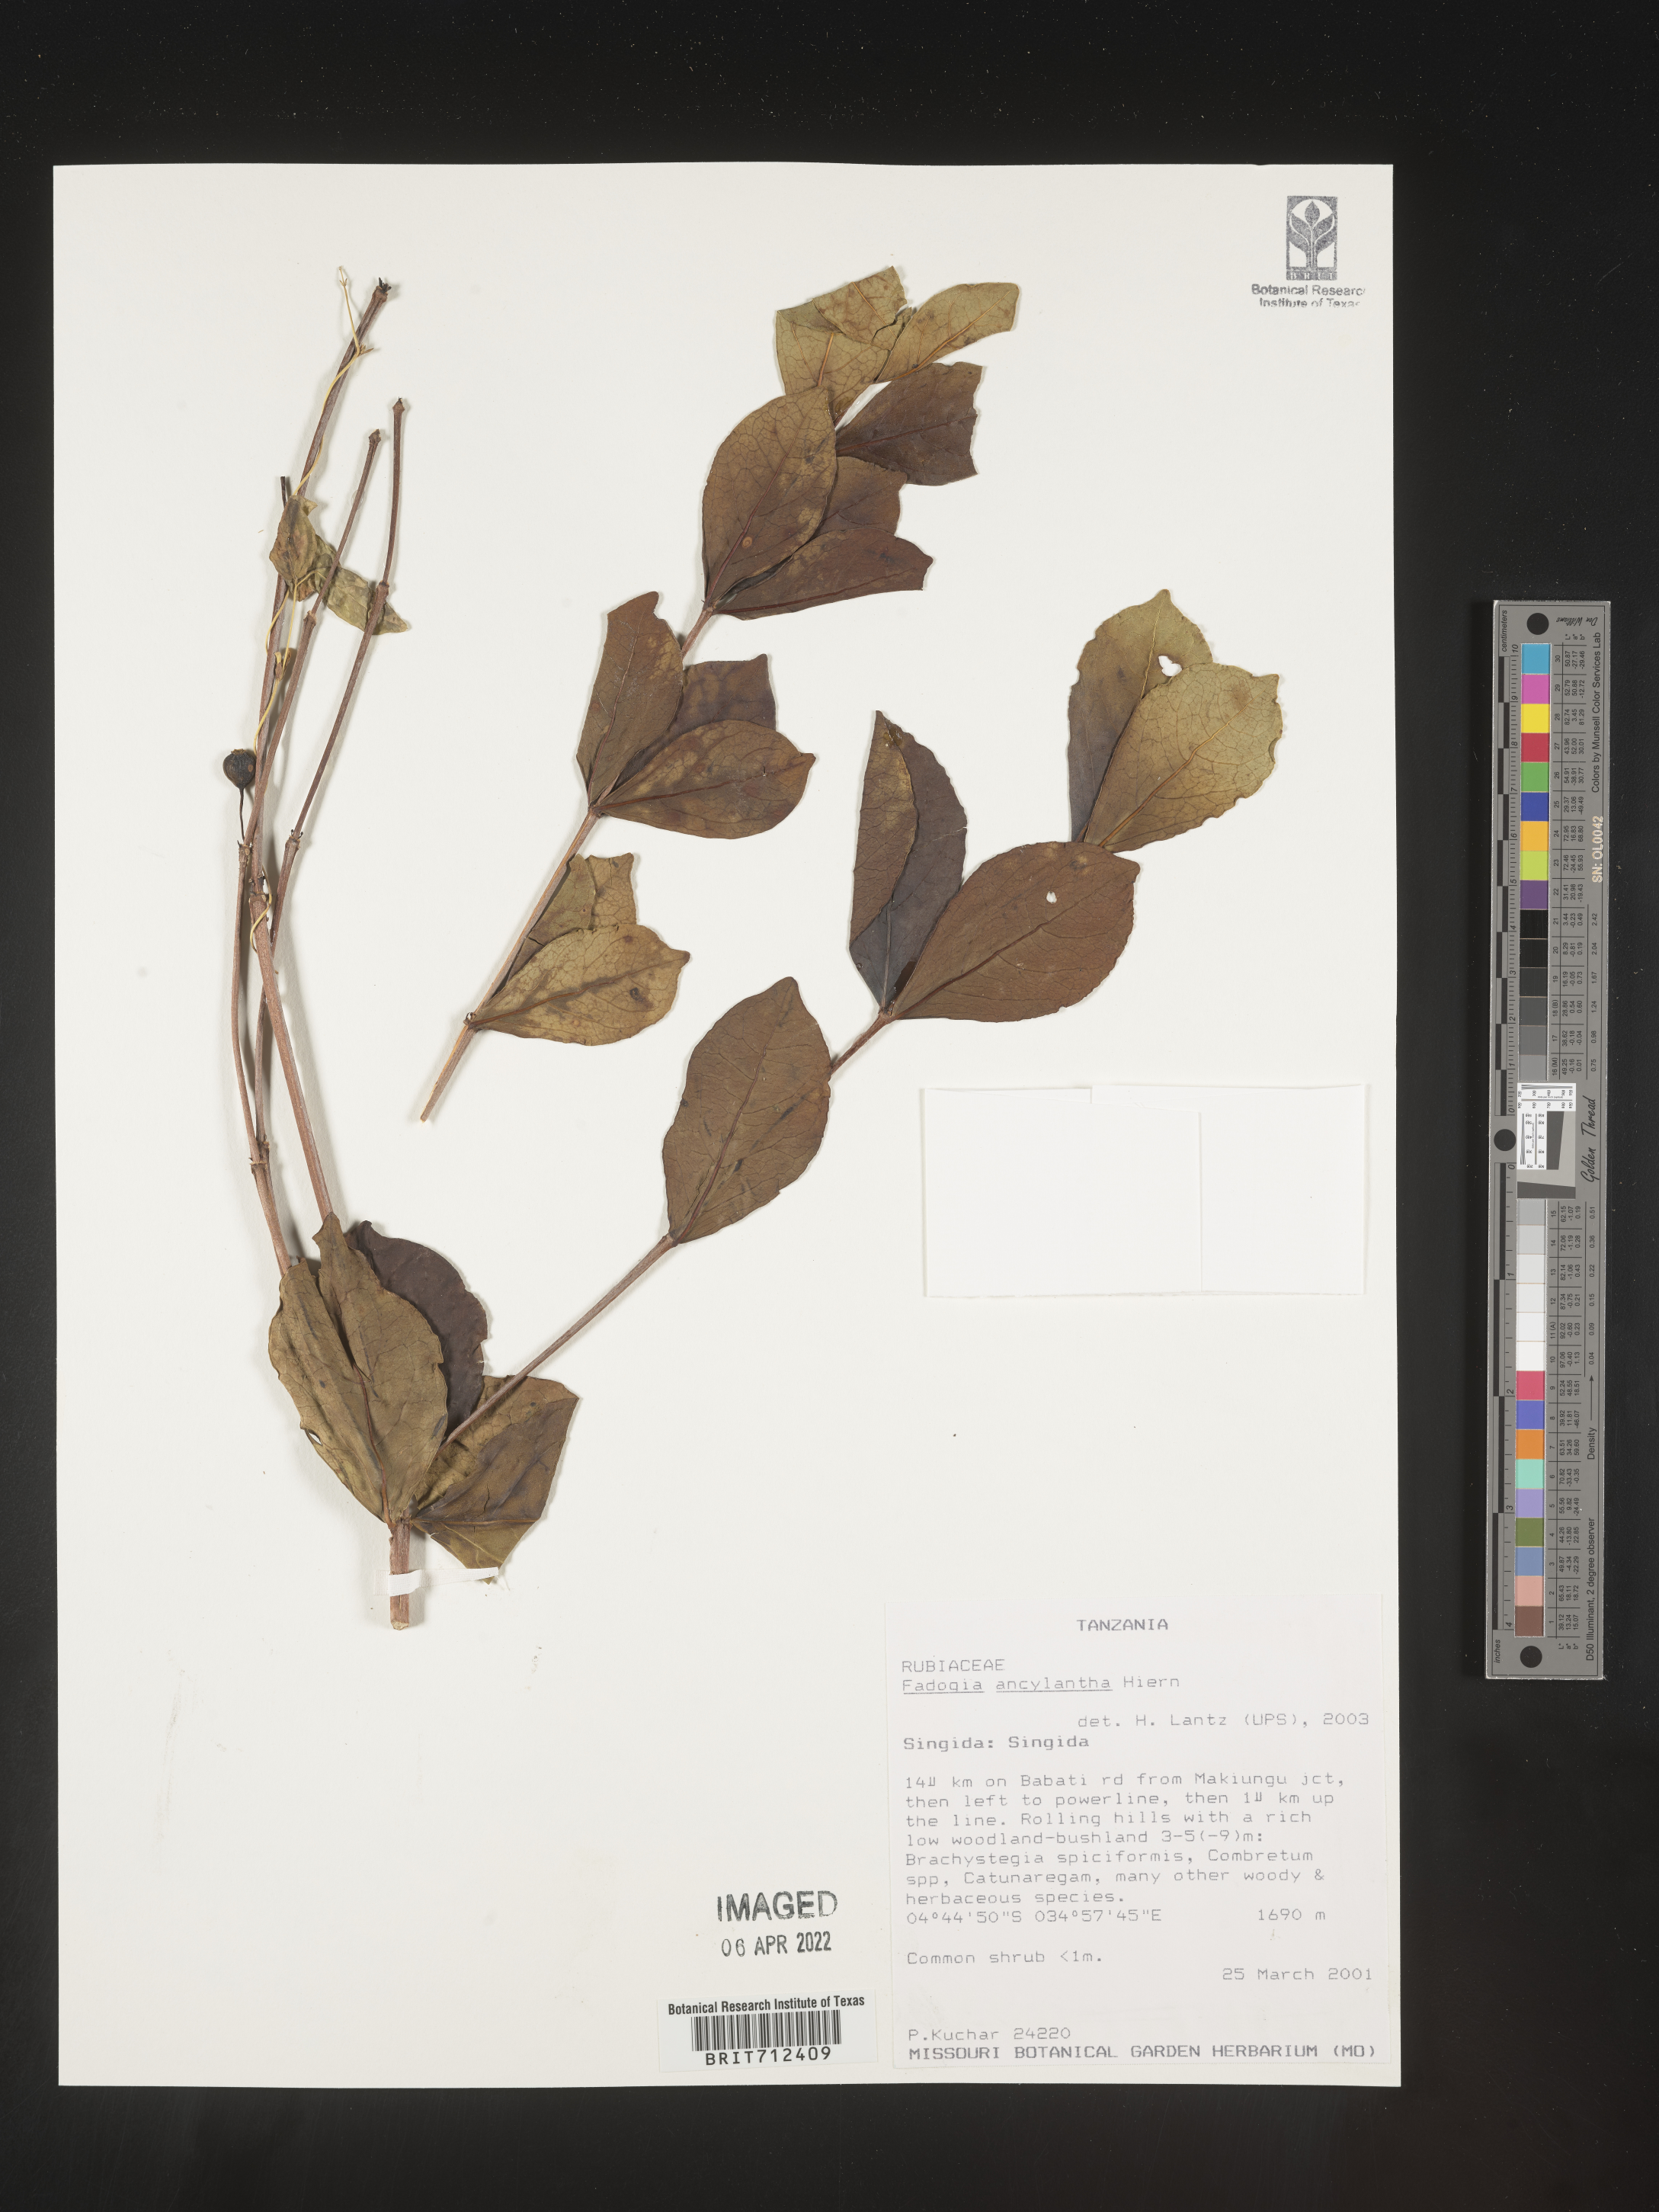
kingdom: Plantae
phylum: Tracheophyta
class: Magnoliopsida
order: Gentianales
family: Rubiaceae
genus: Fadogia
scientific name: Fadogia
